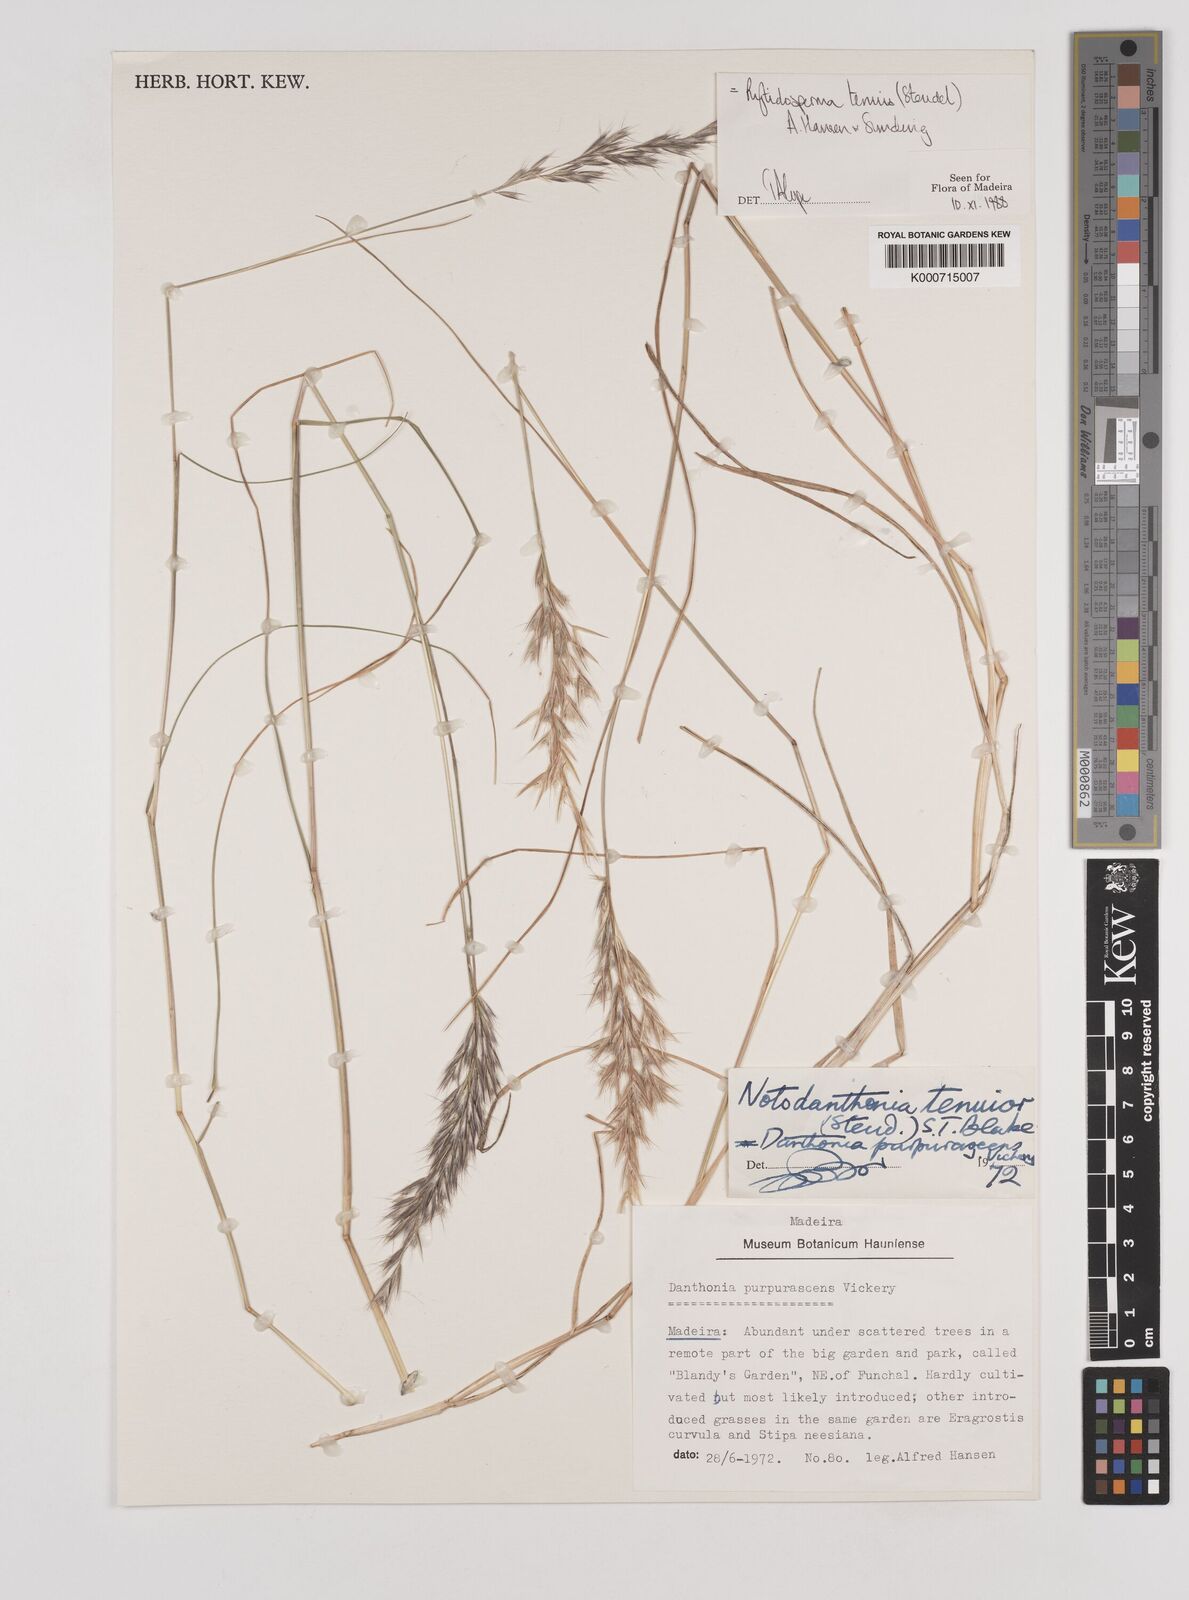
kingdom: Plantae
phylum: Tracheophyta
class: Liliopsida
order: Poales
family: Poaceae
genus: Rytidosperma
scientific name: Rytidosperma tenuius
